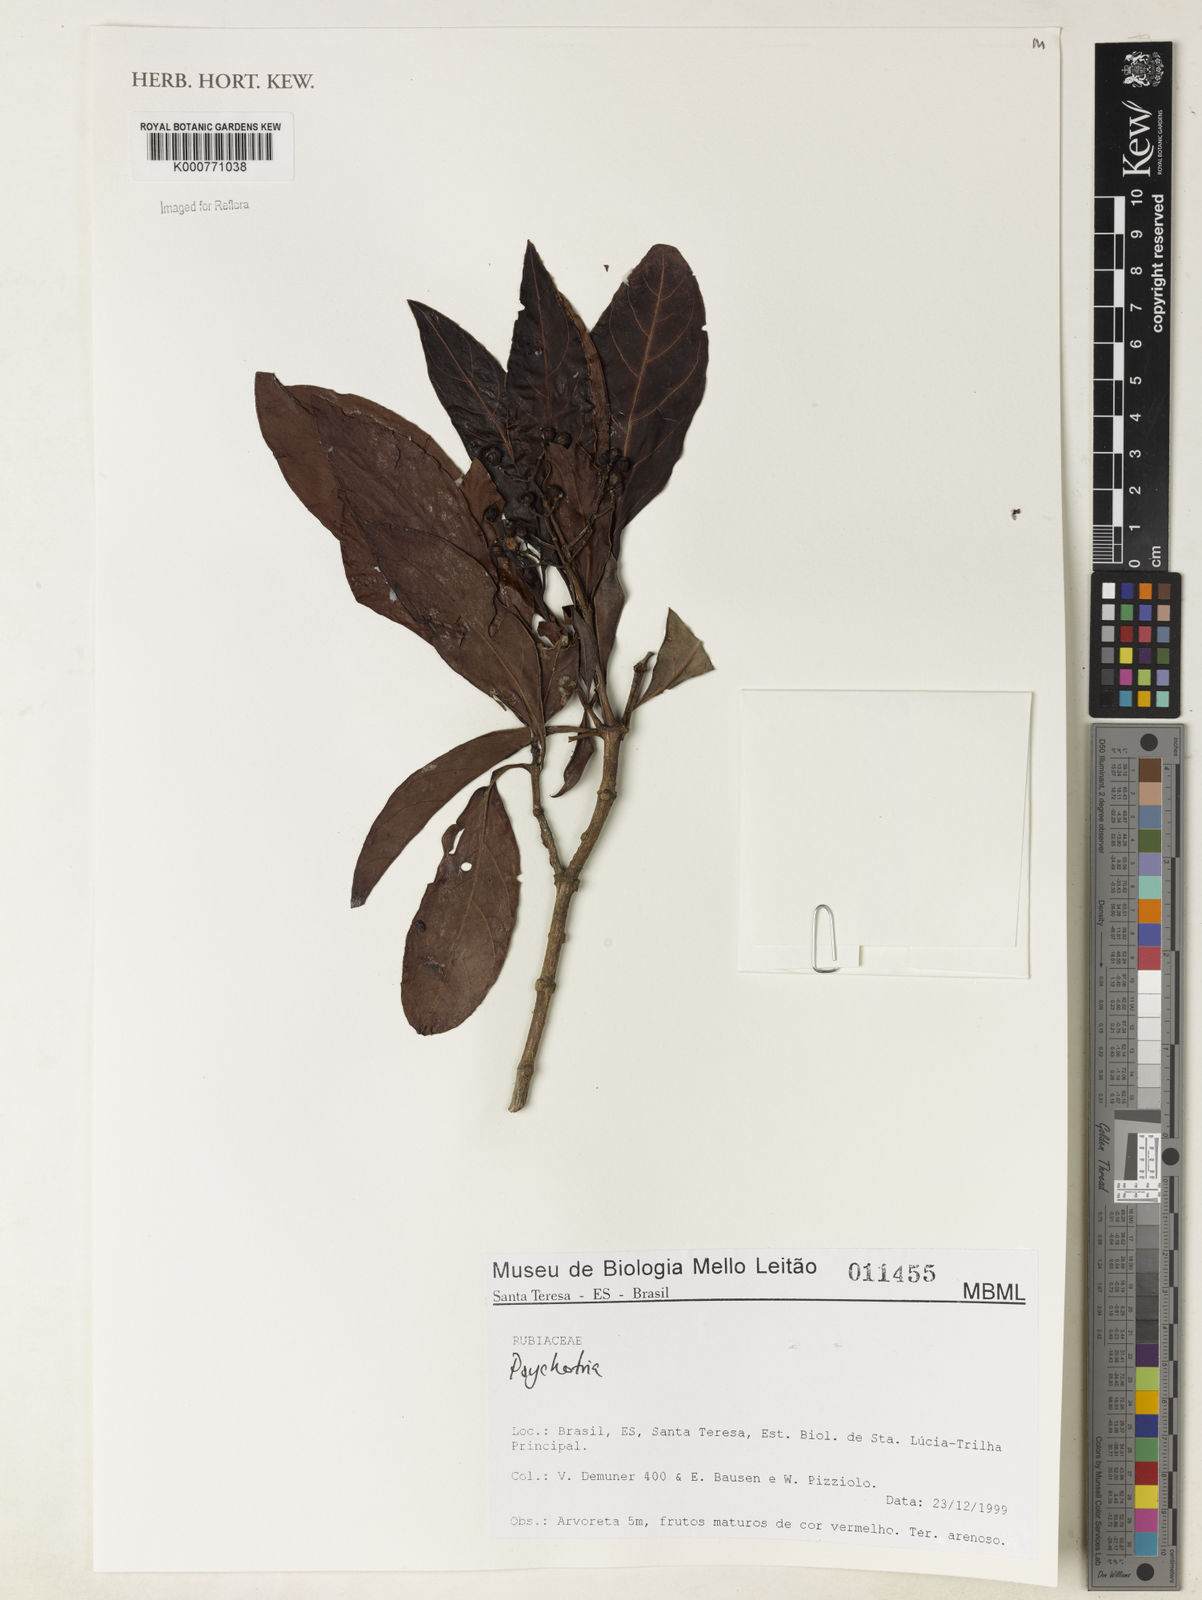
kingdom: Plantae
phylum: Tracheophyta
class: Magnoliopsida
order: Gentianales
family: Rubiaceae
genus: Psychotria
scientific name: Psychotria
